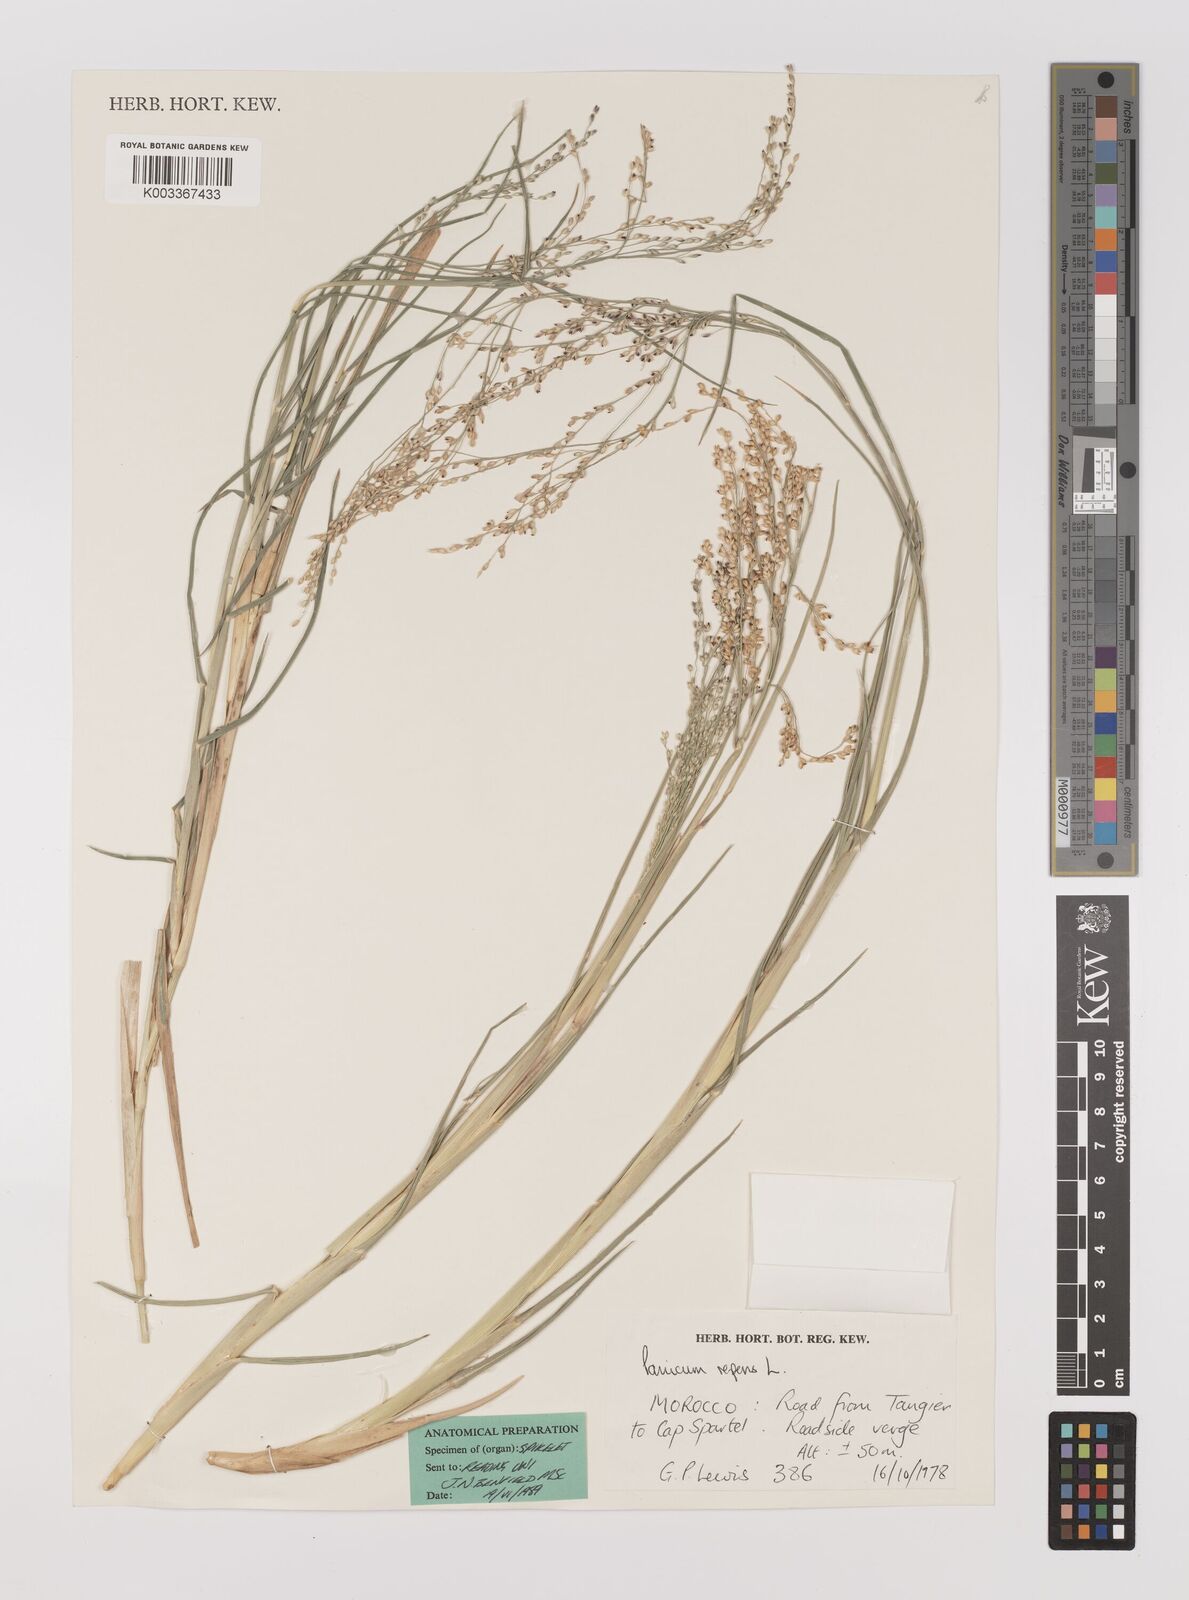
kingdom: Plantae
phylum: Tracheophyta
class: Liliopsida
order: Poales
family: Poaceae
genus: Panicum
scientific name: Panicum repens
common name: Torpedo grass
